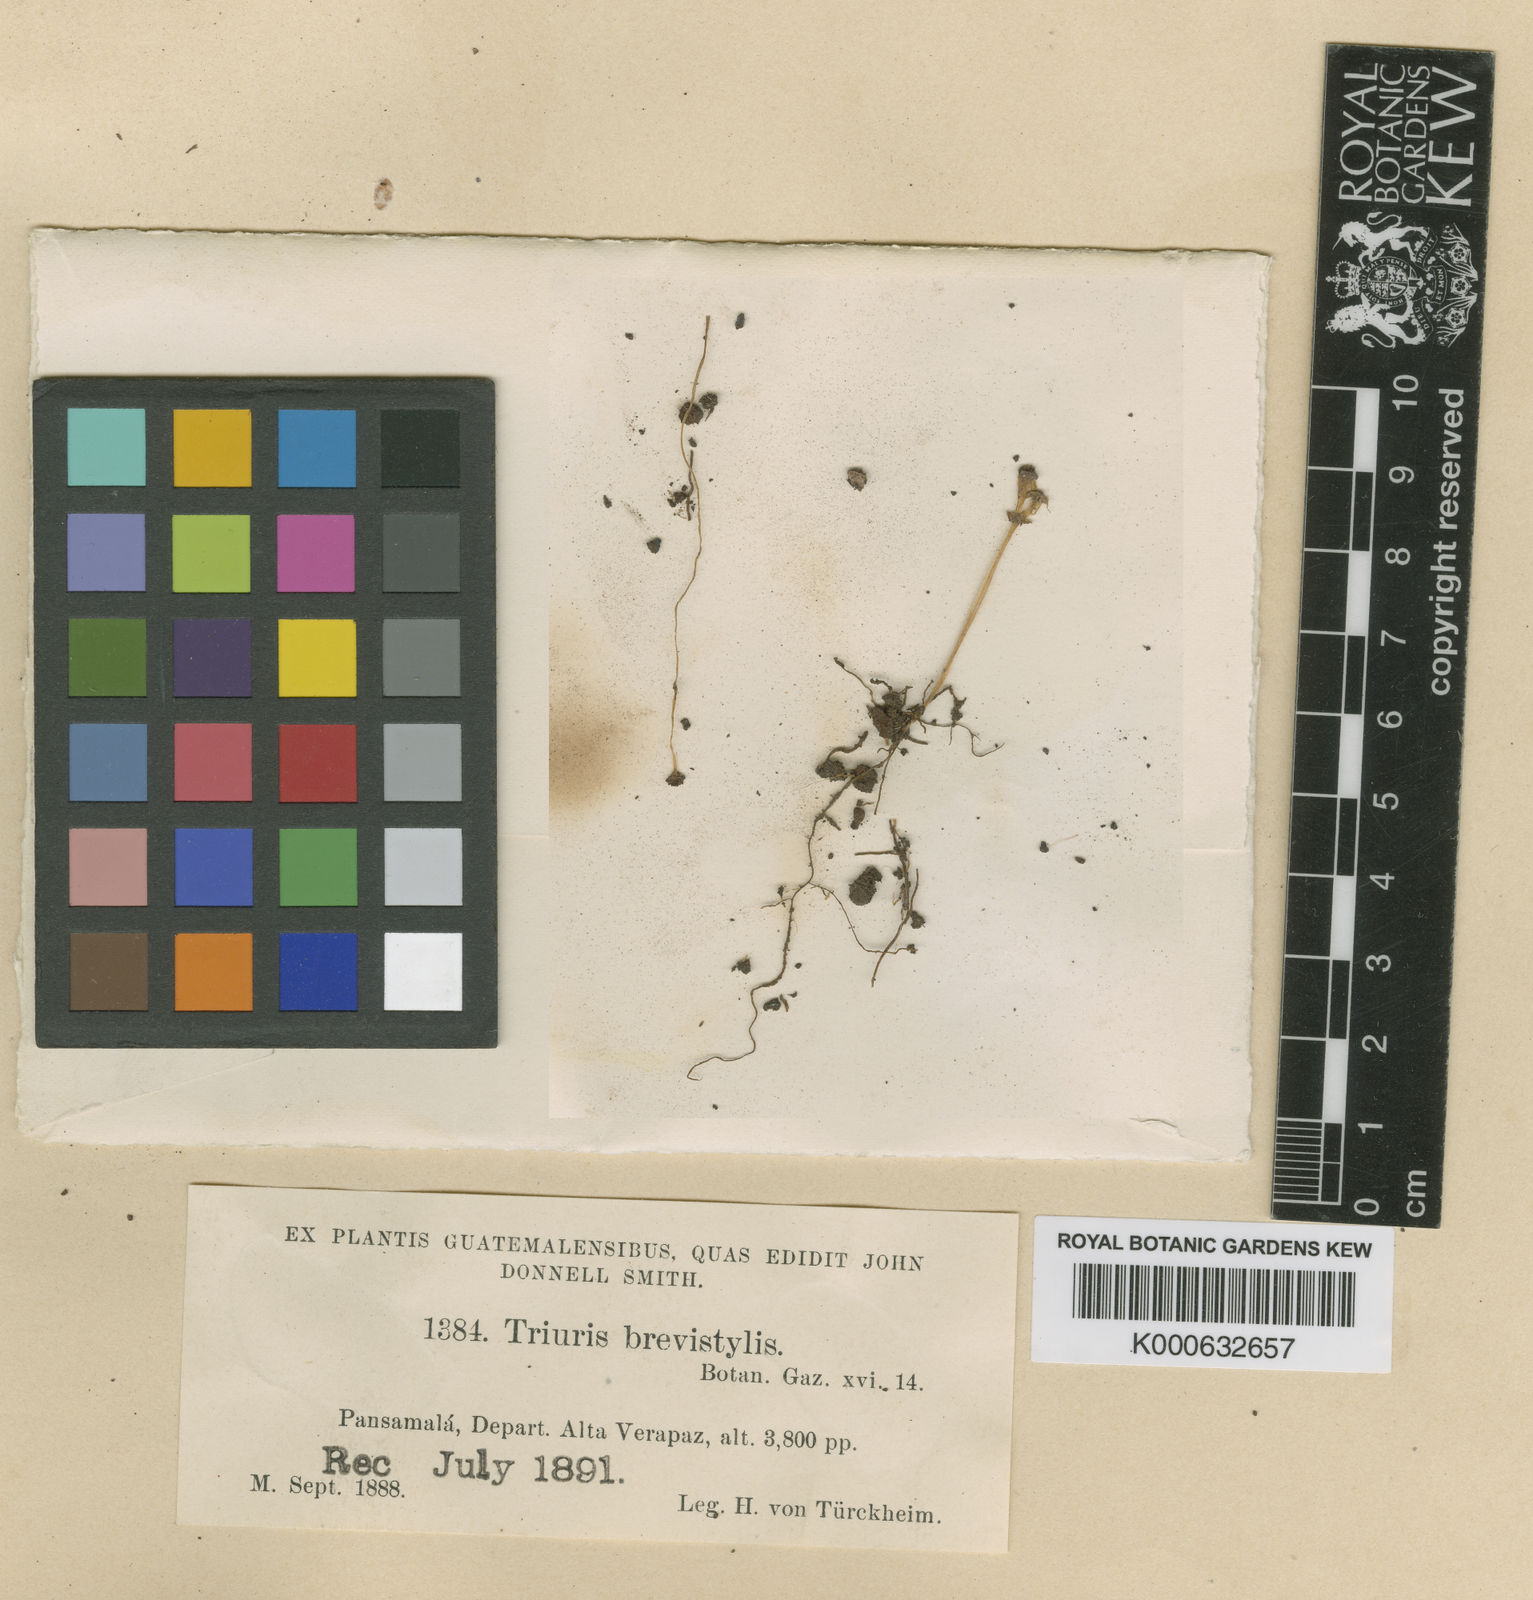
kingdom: Plantae
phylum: Tracheophyta
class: Liliopsida
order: Pandanales
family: Triuridaceae
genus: Triuris
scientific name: Triuris brevistylis
